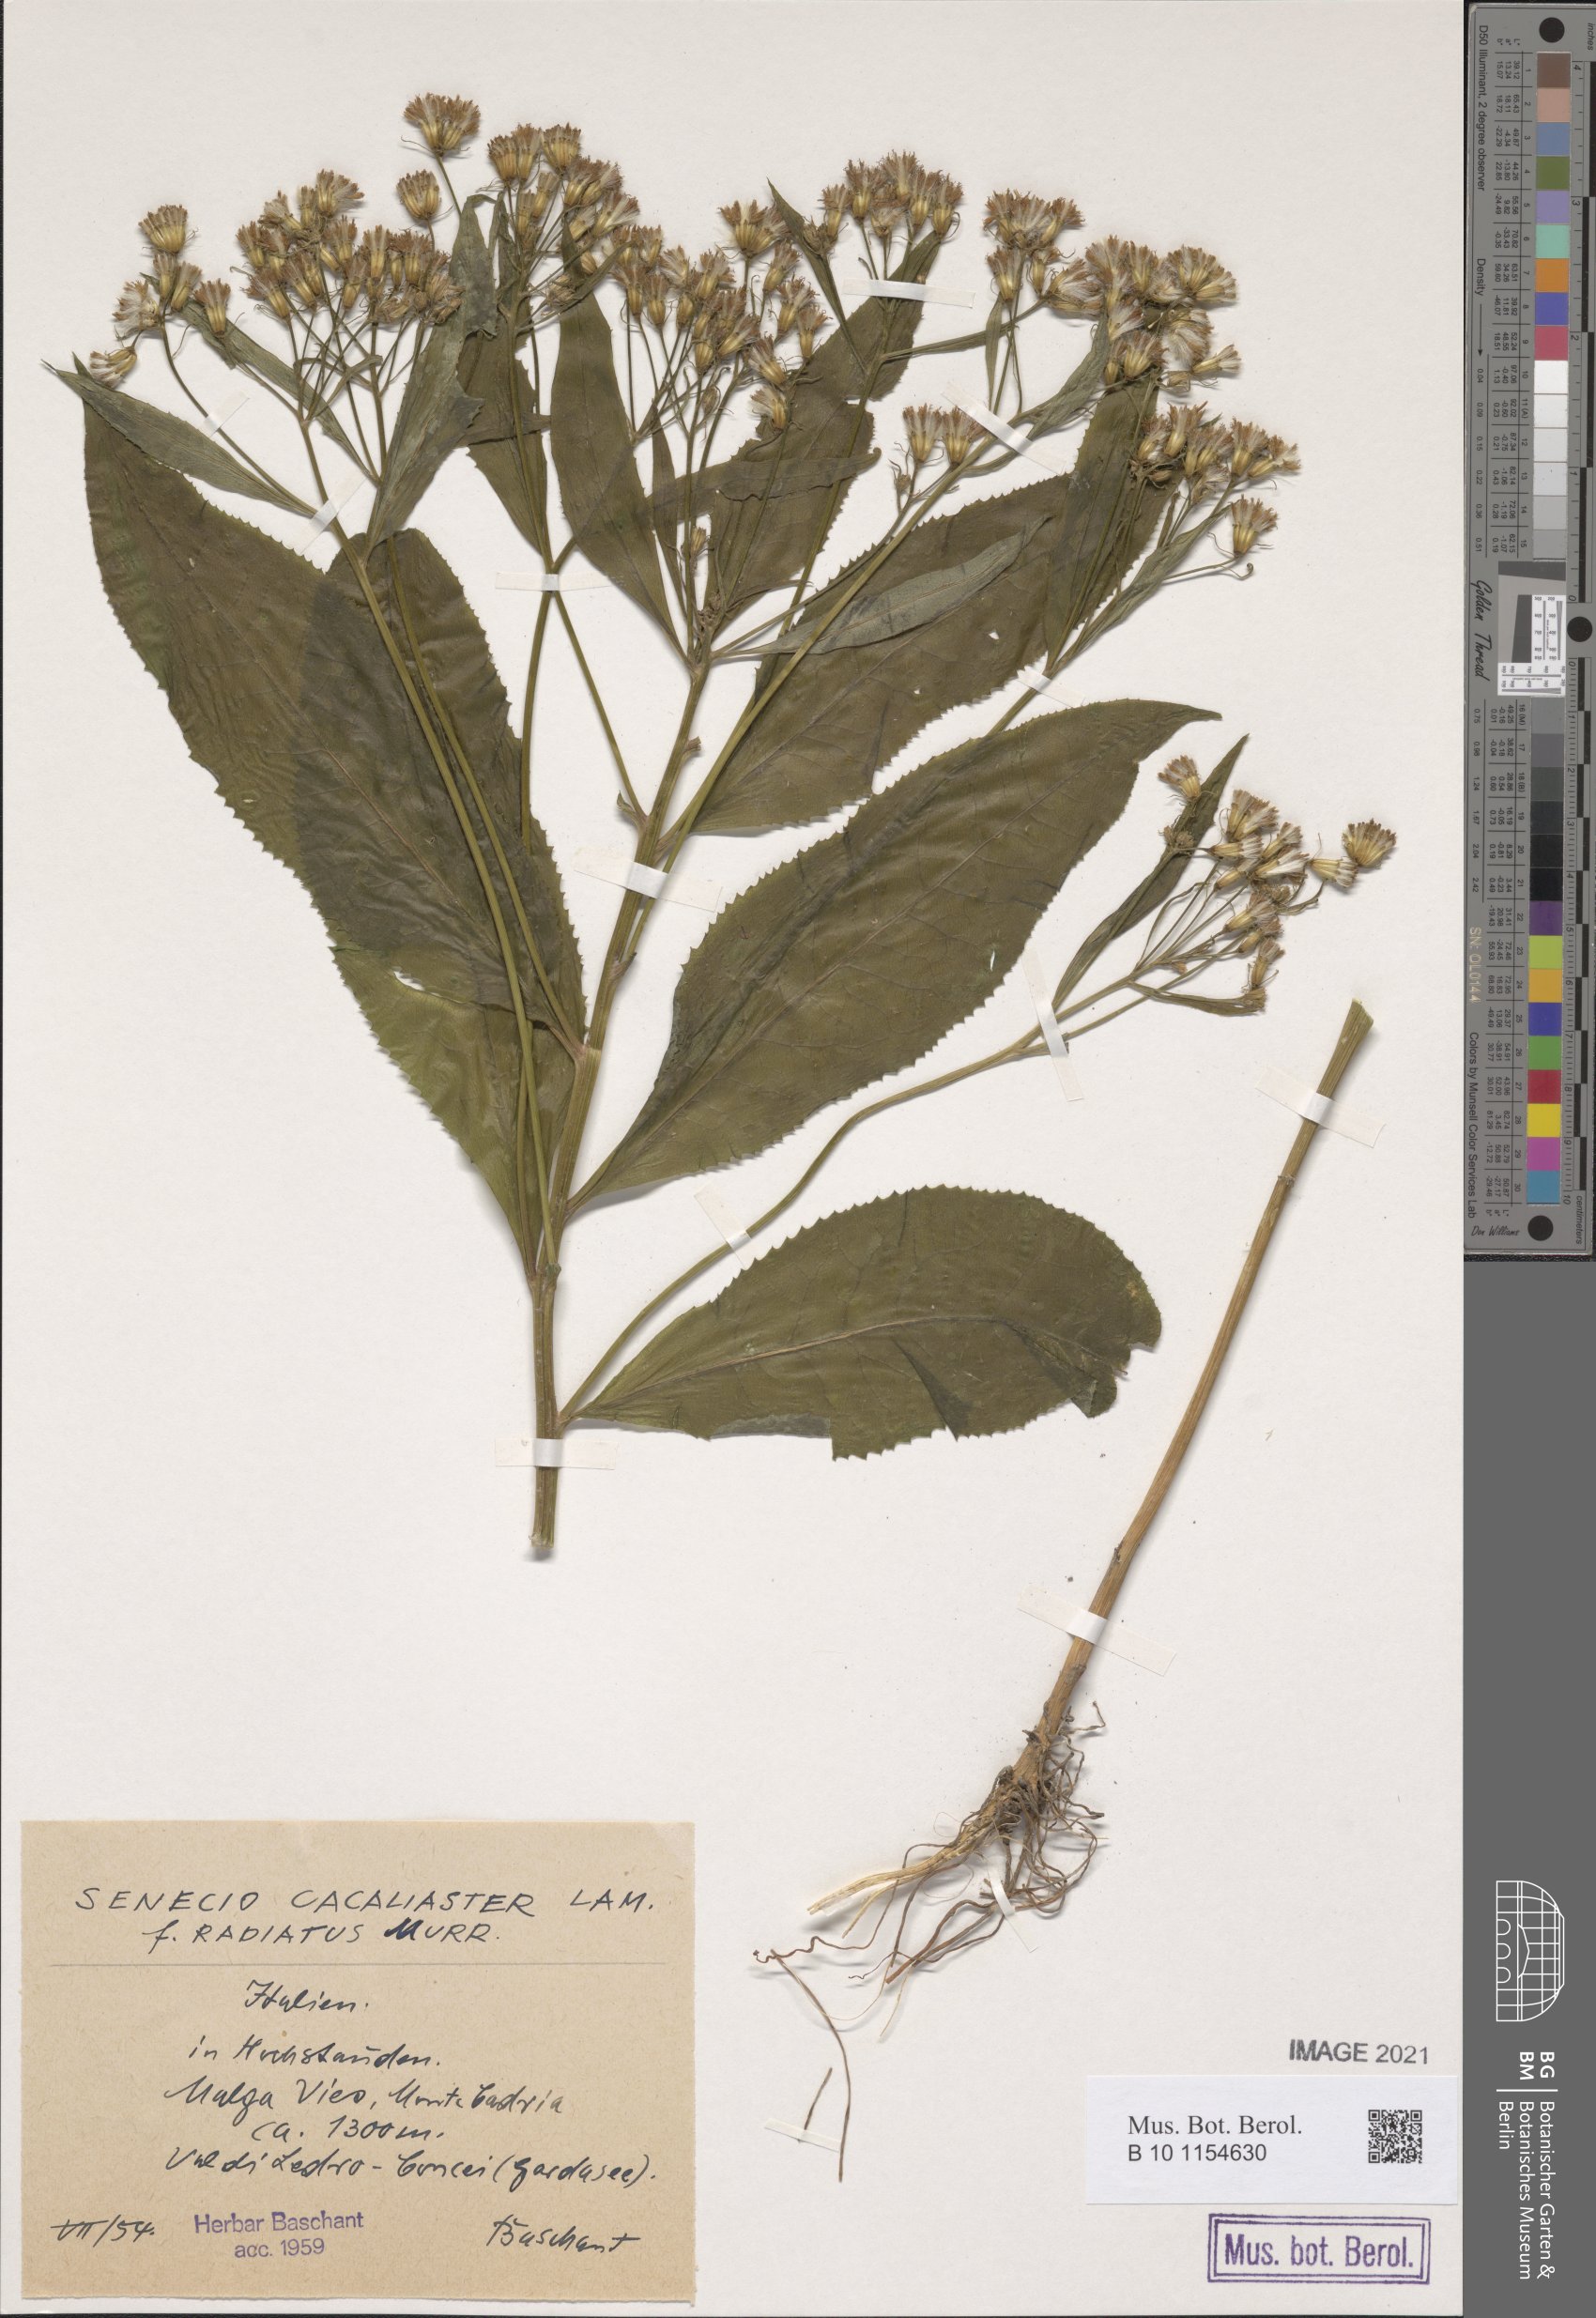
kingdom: Plantae
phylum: Tracheophyta
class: Magnoliopsida
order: Asterales
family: Asteraceae
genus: Senecio
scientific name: Senecio
